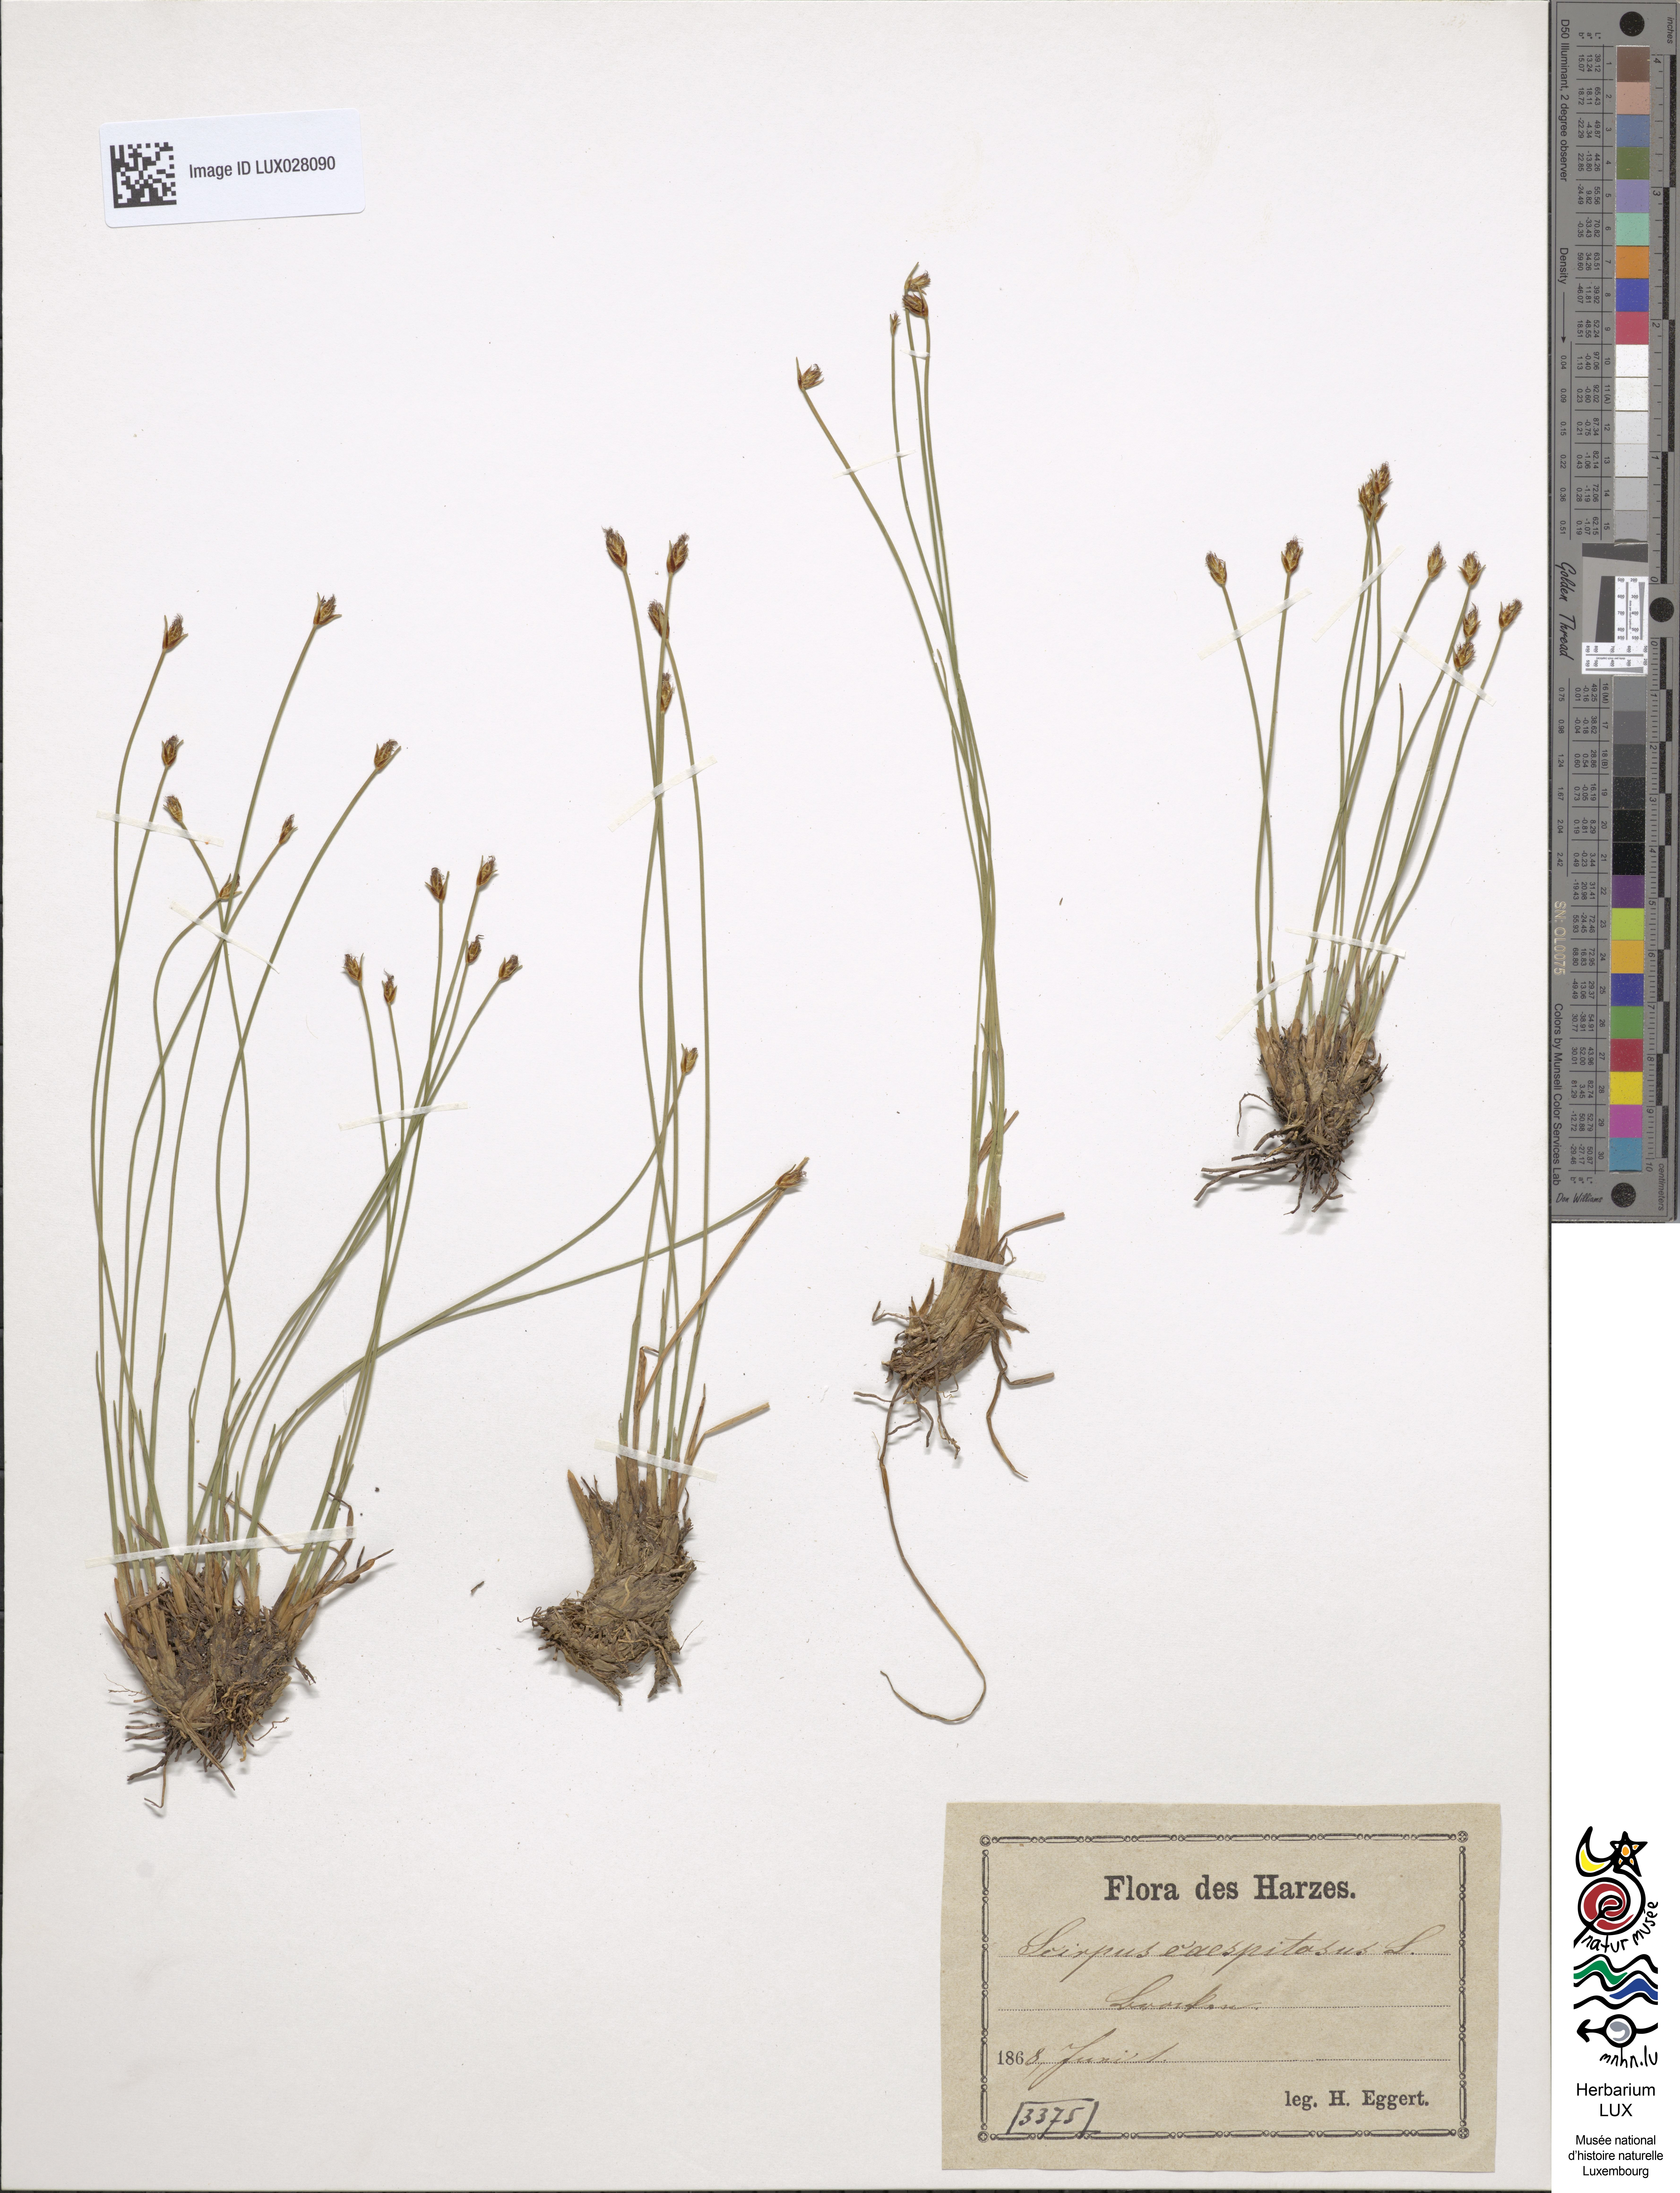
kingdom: Plantae
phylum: Tracheophyta
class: Liliopsida
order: Poales
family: Cyperaceae
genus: Trichophorum
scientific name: Trichophorum cespitosum
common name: Cespitose bulrush
